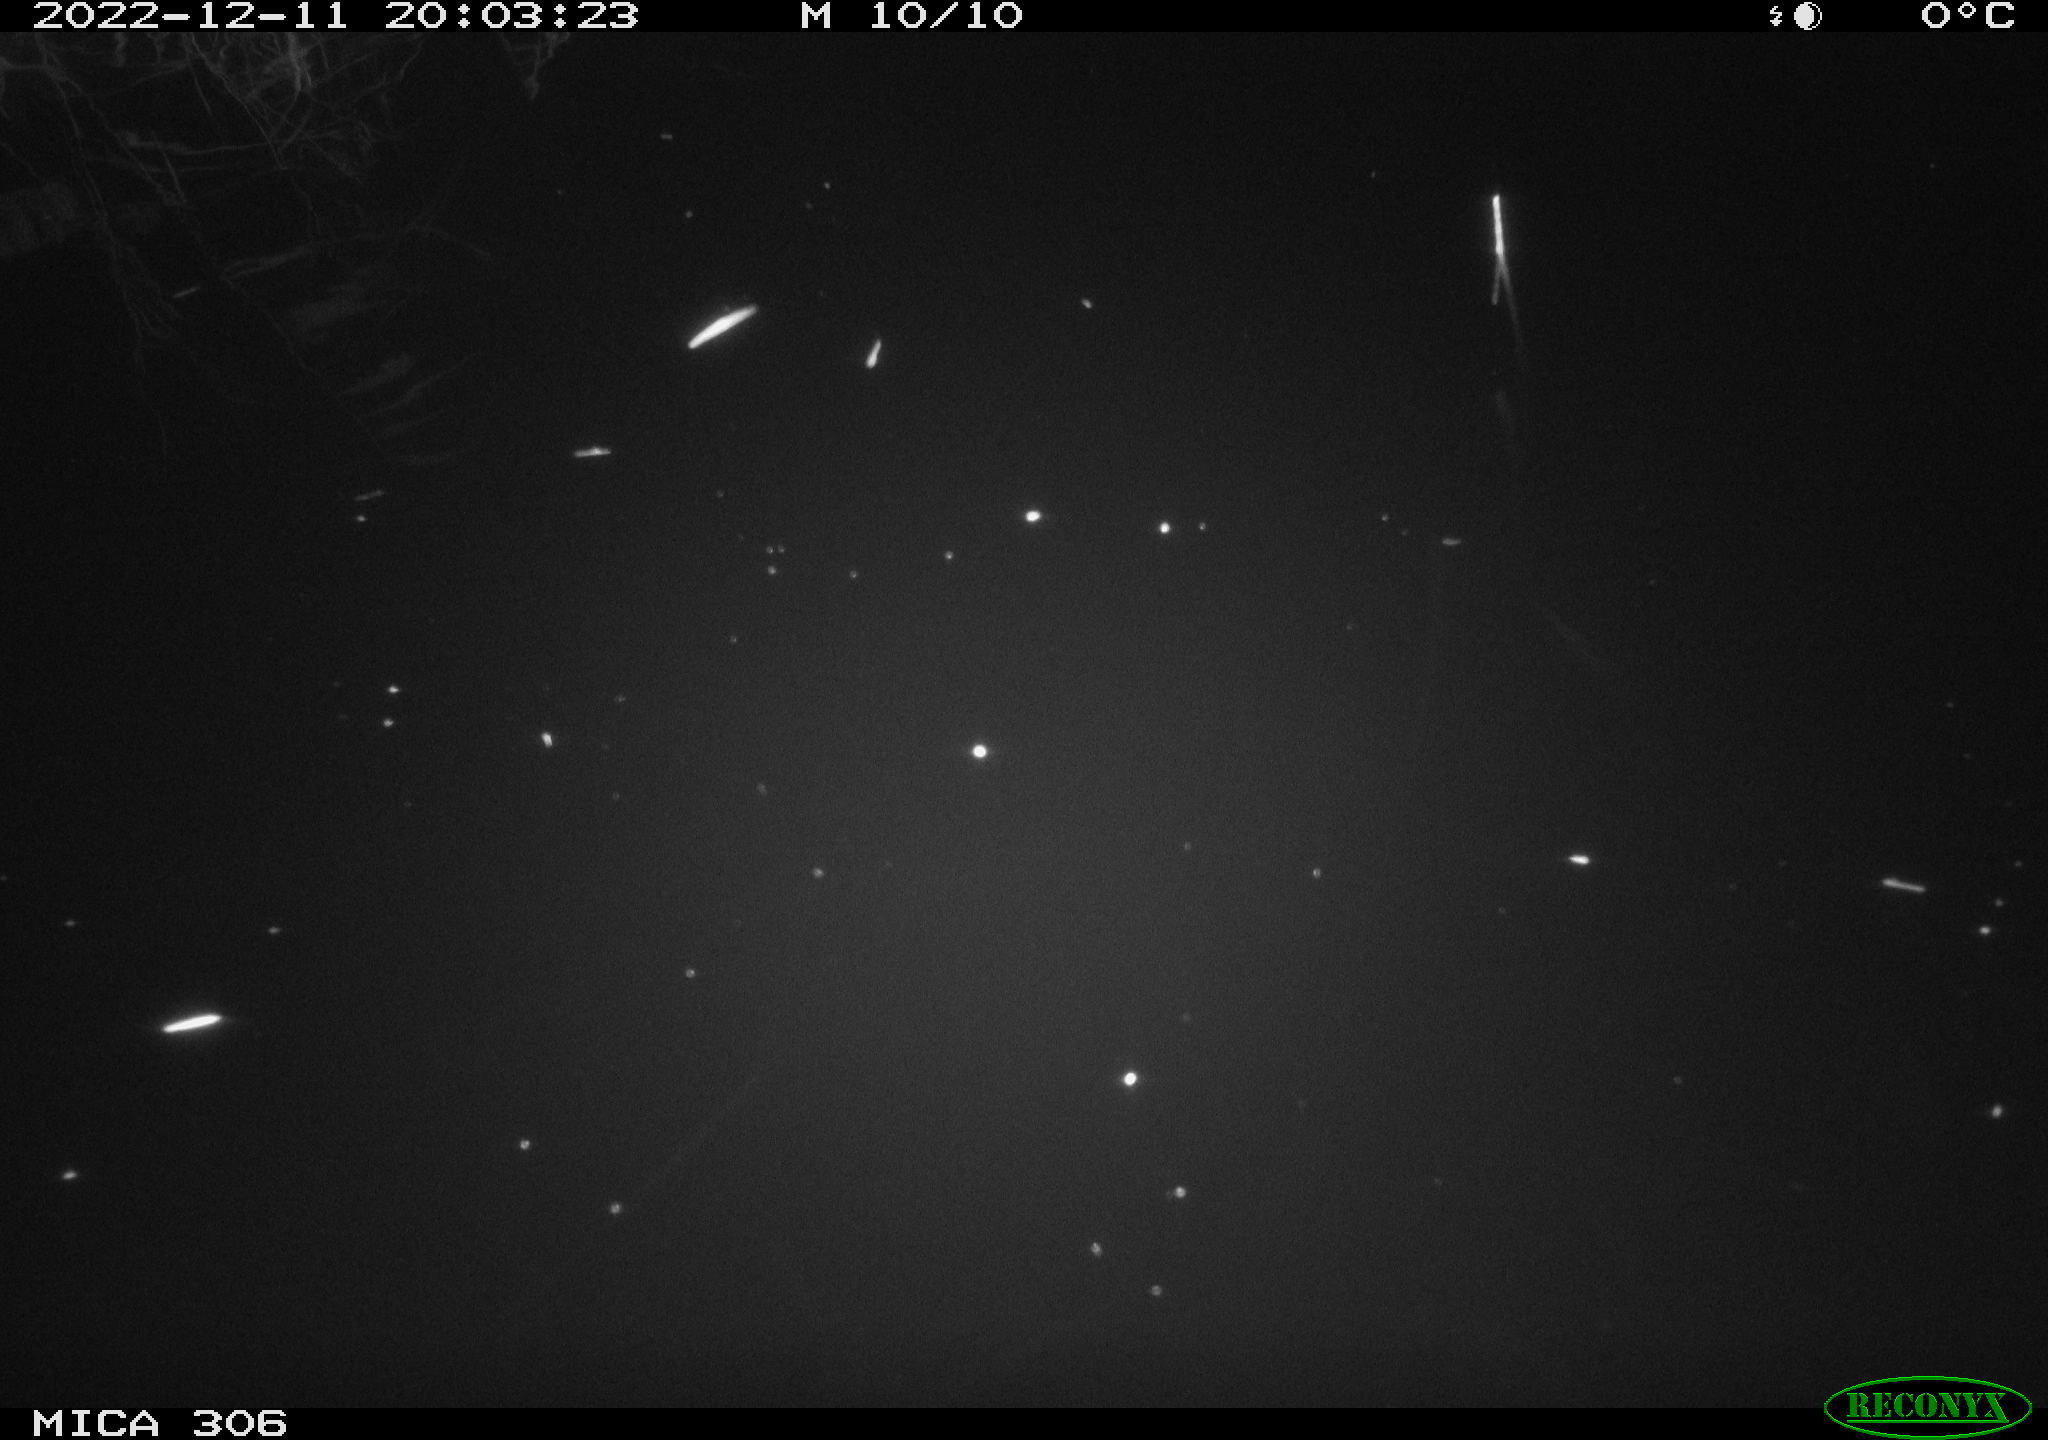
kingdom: Animalia
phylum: Chordata
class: Mammalia
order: Rodentia
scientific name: Rodentia
